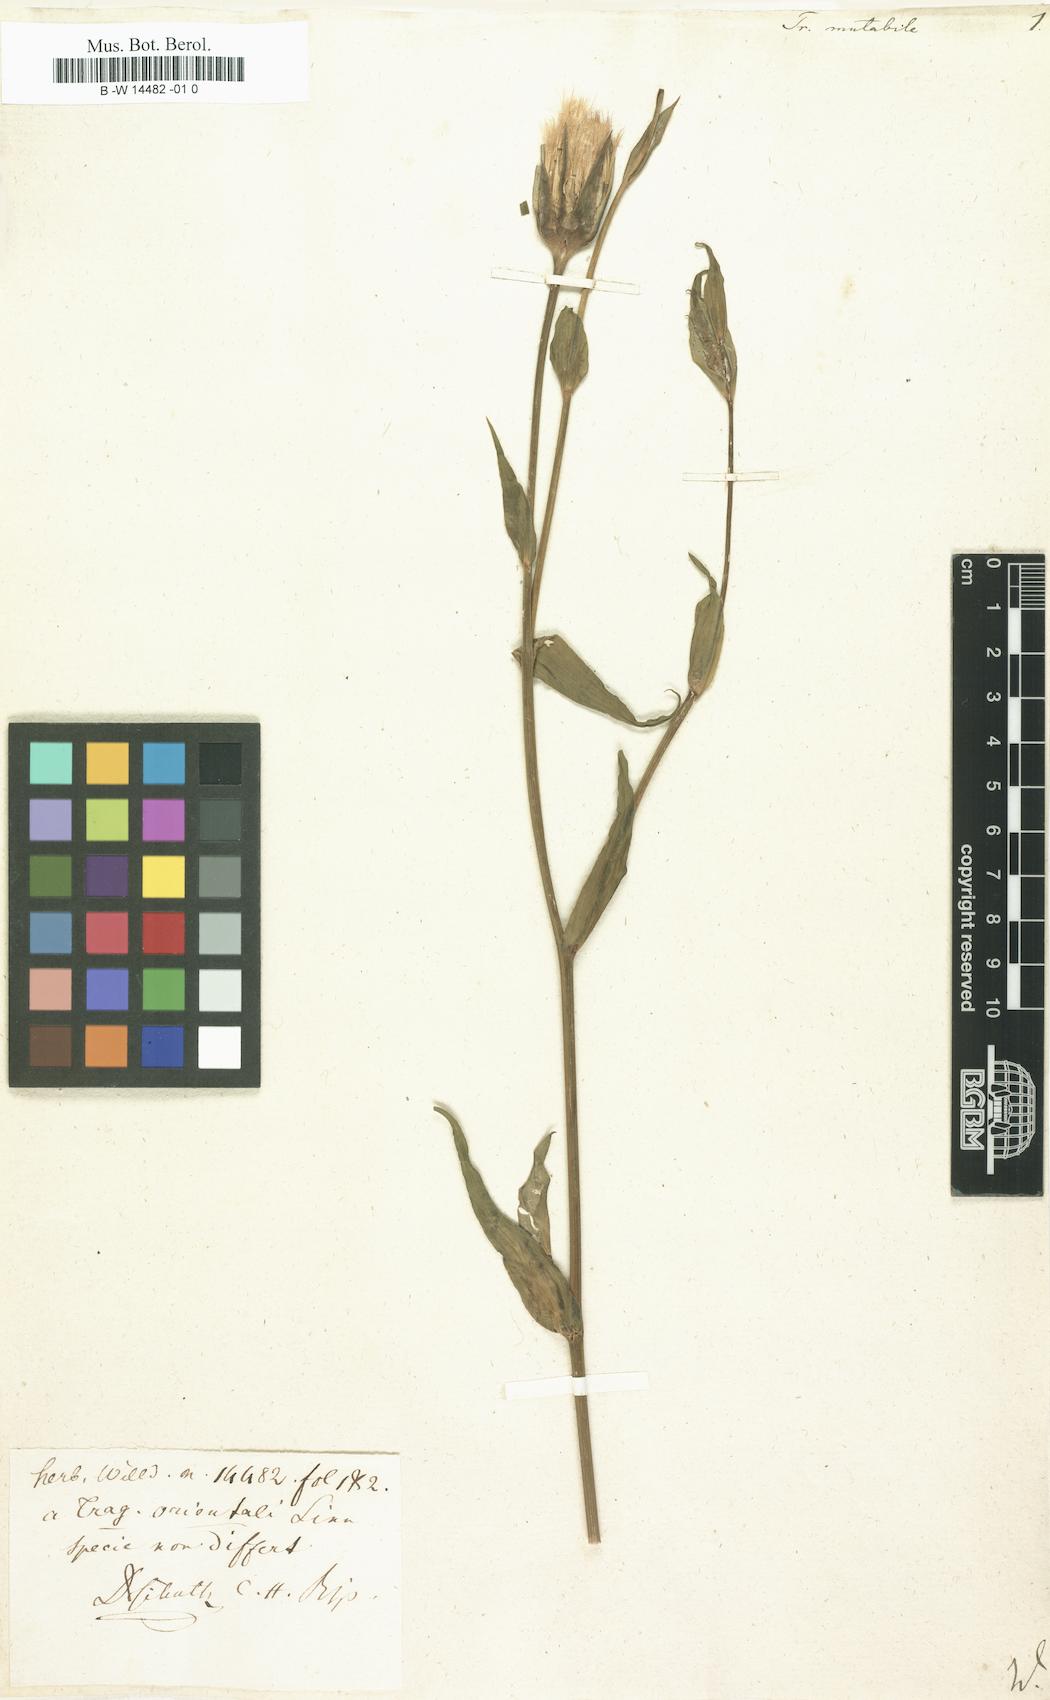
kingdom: Plantae
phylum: Tracheophyta
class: Magnoliopsida
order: Asterales
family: Asteraceae
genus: Tragopogon
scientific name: Tragopogon mutabilis
